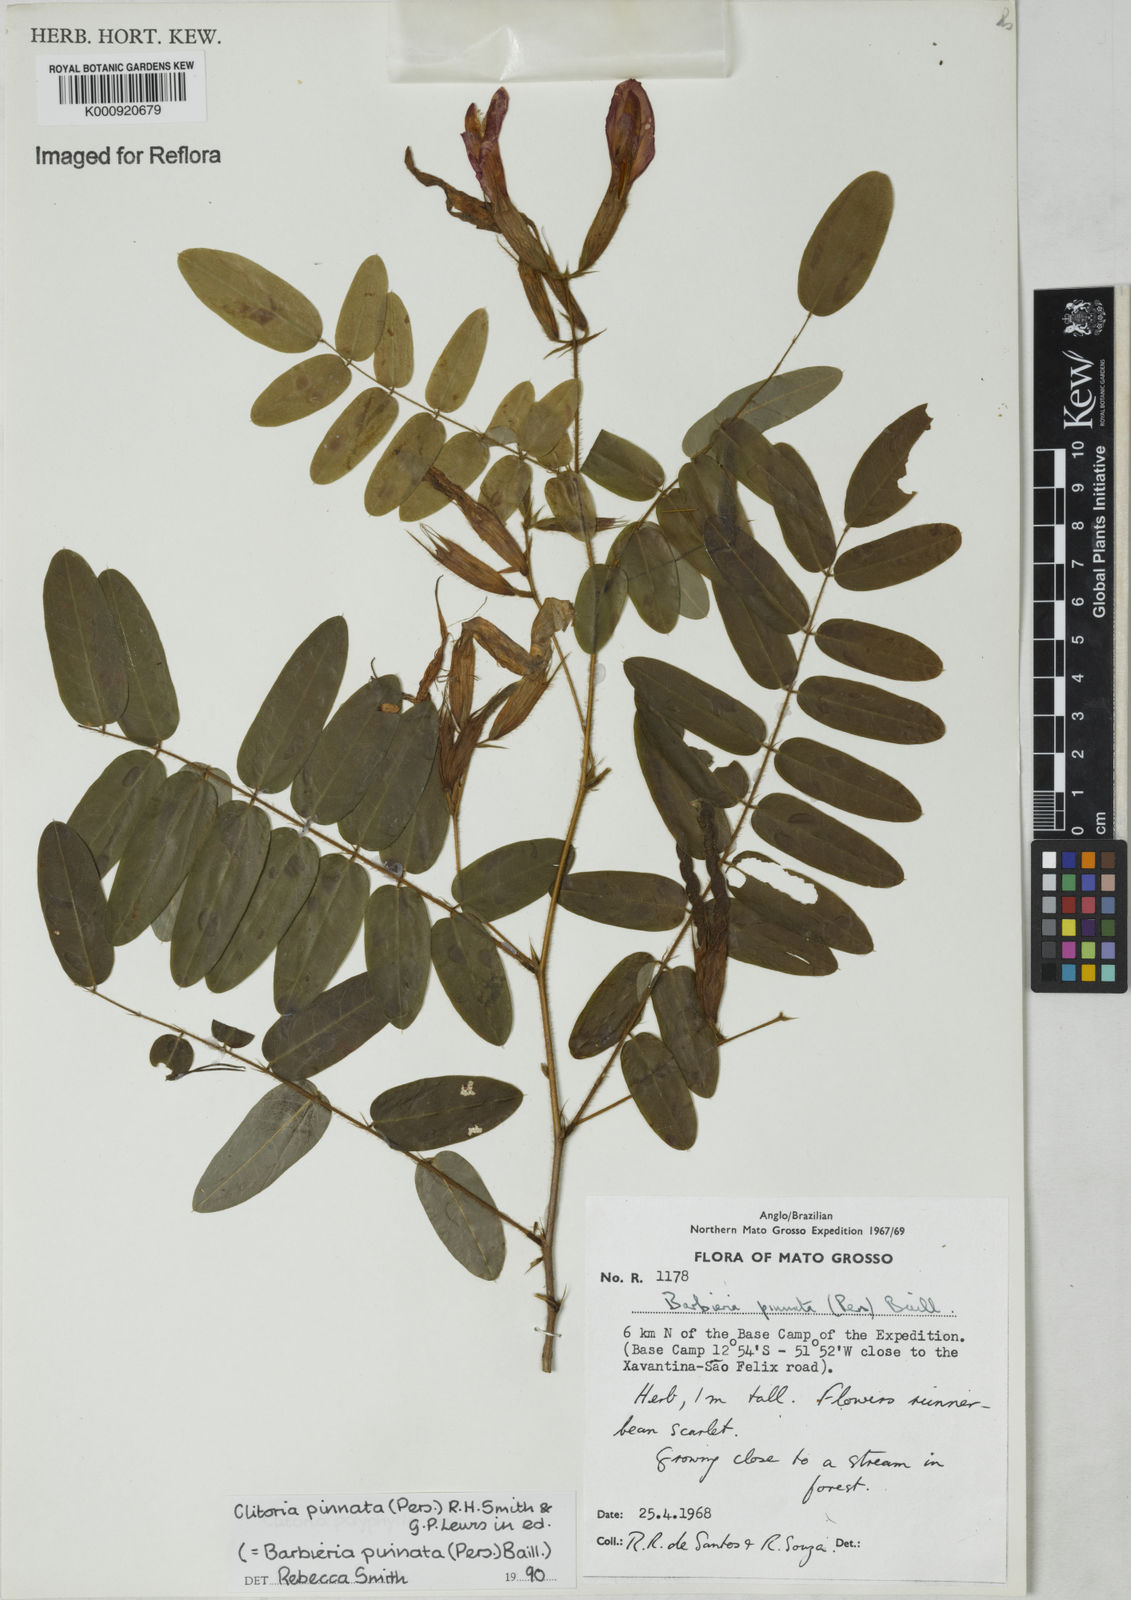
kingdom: Plantae
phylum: Tracheophyta
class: Magnoliopsida
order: Fabales
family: Fabaceae
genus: Barbieria
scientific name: Barbieria pinnata
